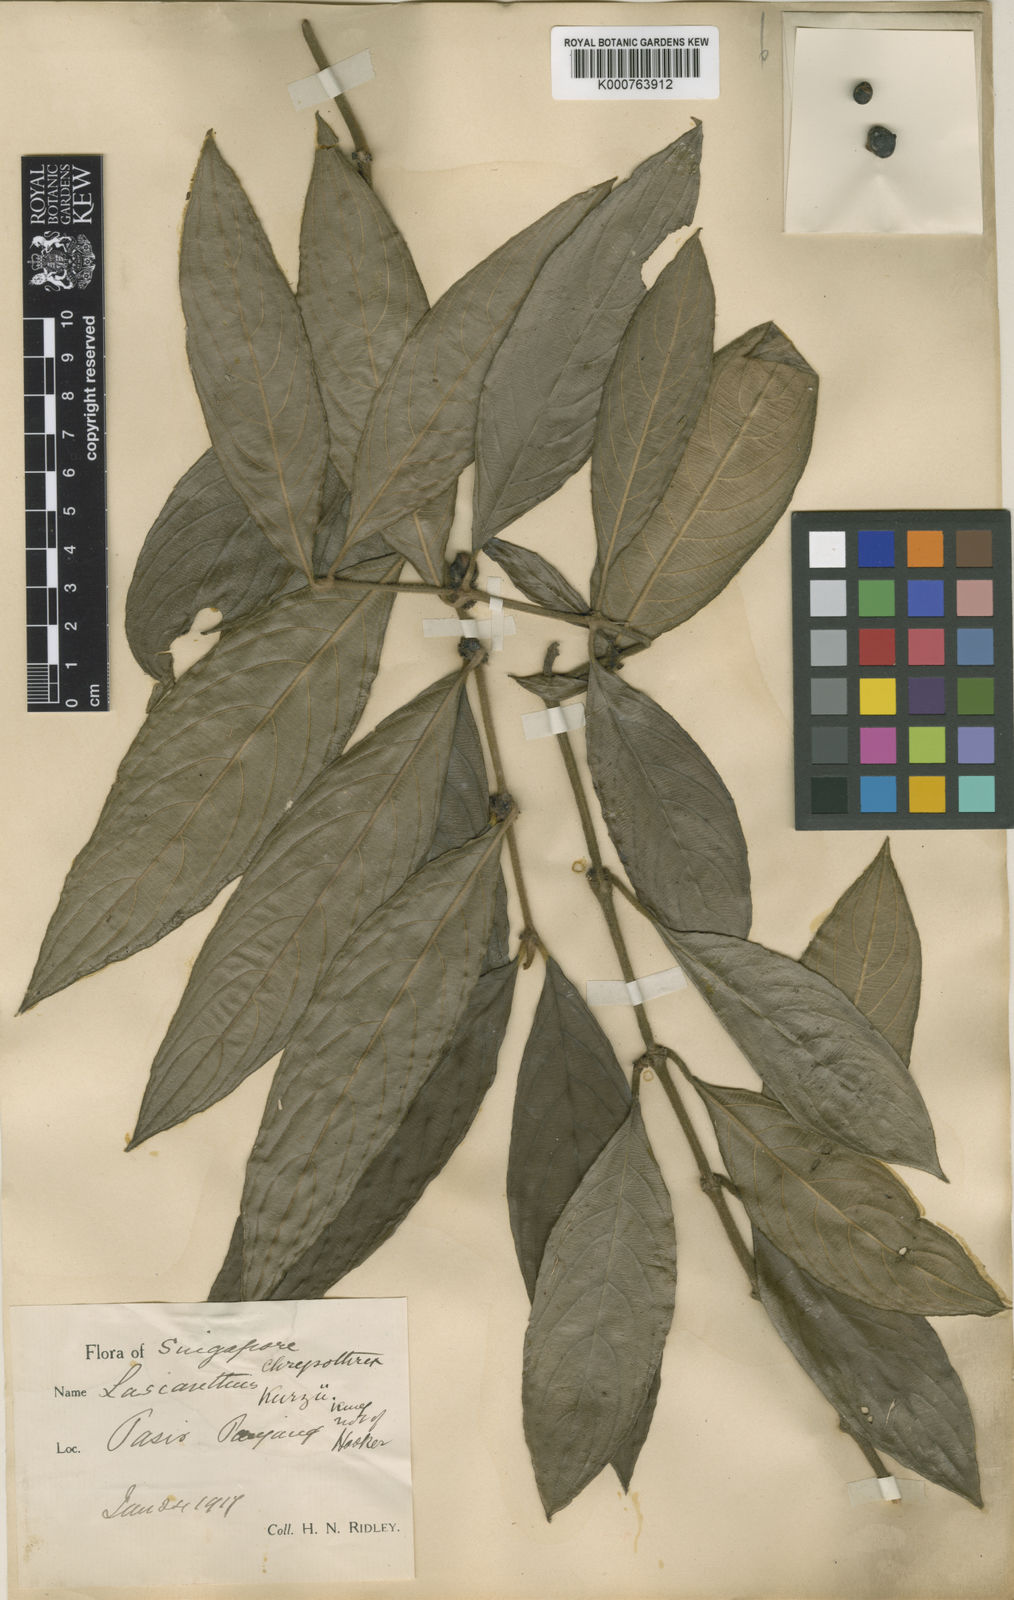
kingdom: Plantae
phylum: Tracheophyta
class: Magnoliopsida
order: Gentianales
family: Rubiaceae
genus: Lasianthus
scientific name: Lasianthus chryseus
